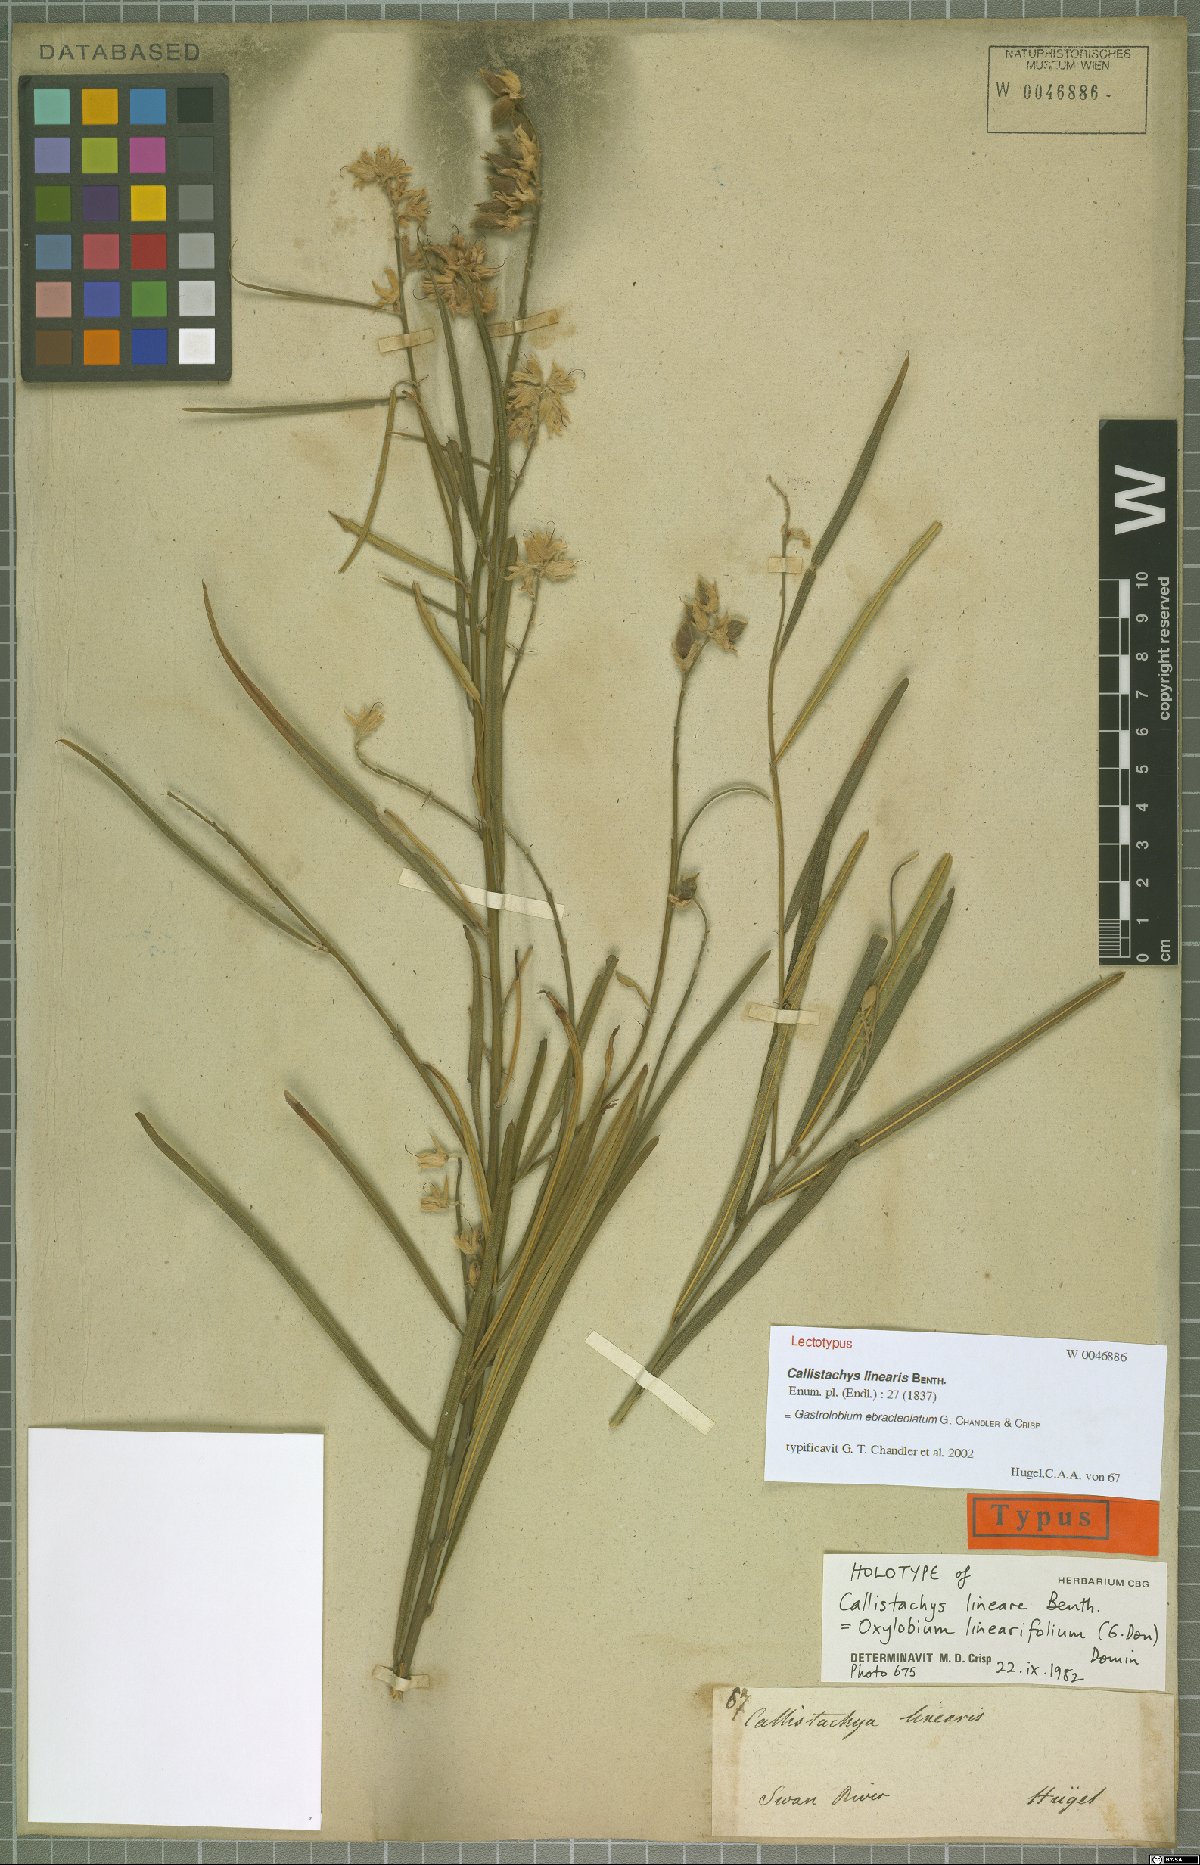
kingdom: Plantae
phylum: Tracheophyta
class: Magnoliopsida
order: Fabales
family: Fabaceae
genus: Gastrolobium
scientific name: Gastrolobium ebracteolatum
